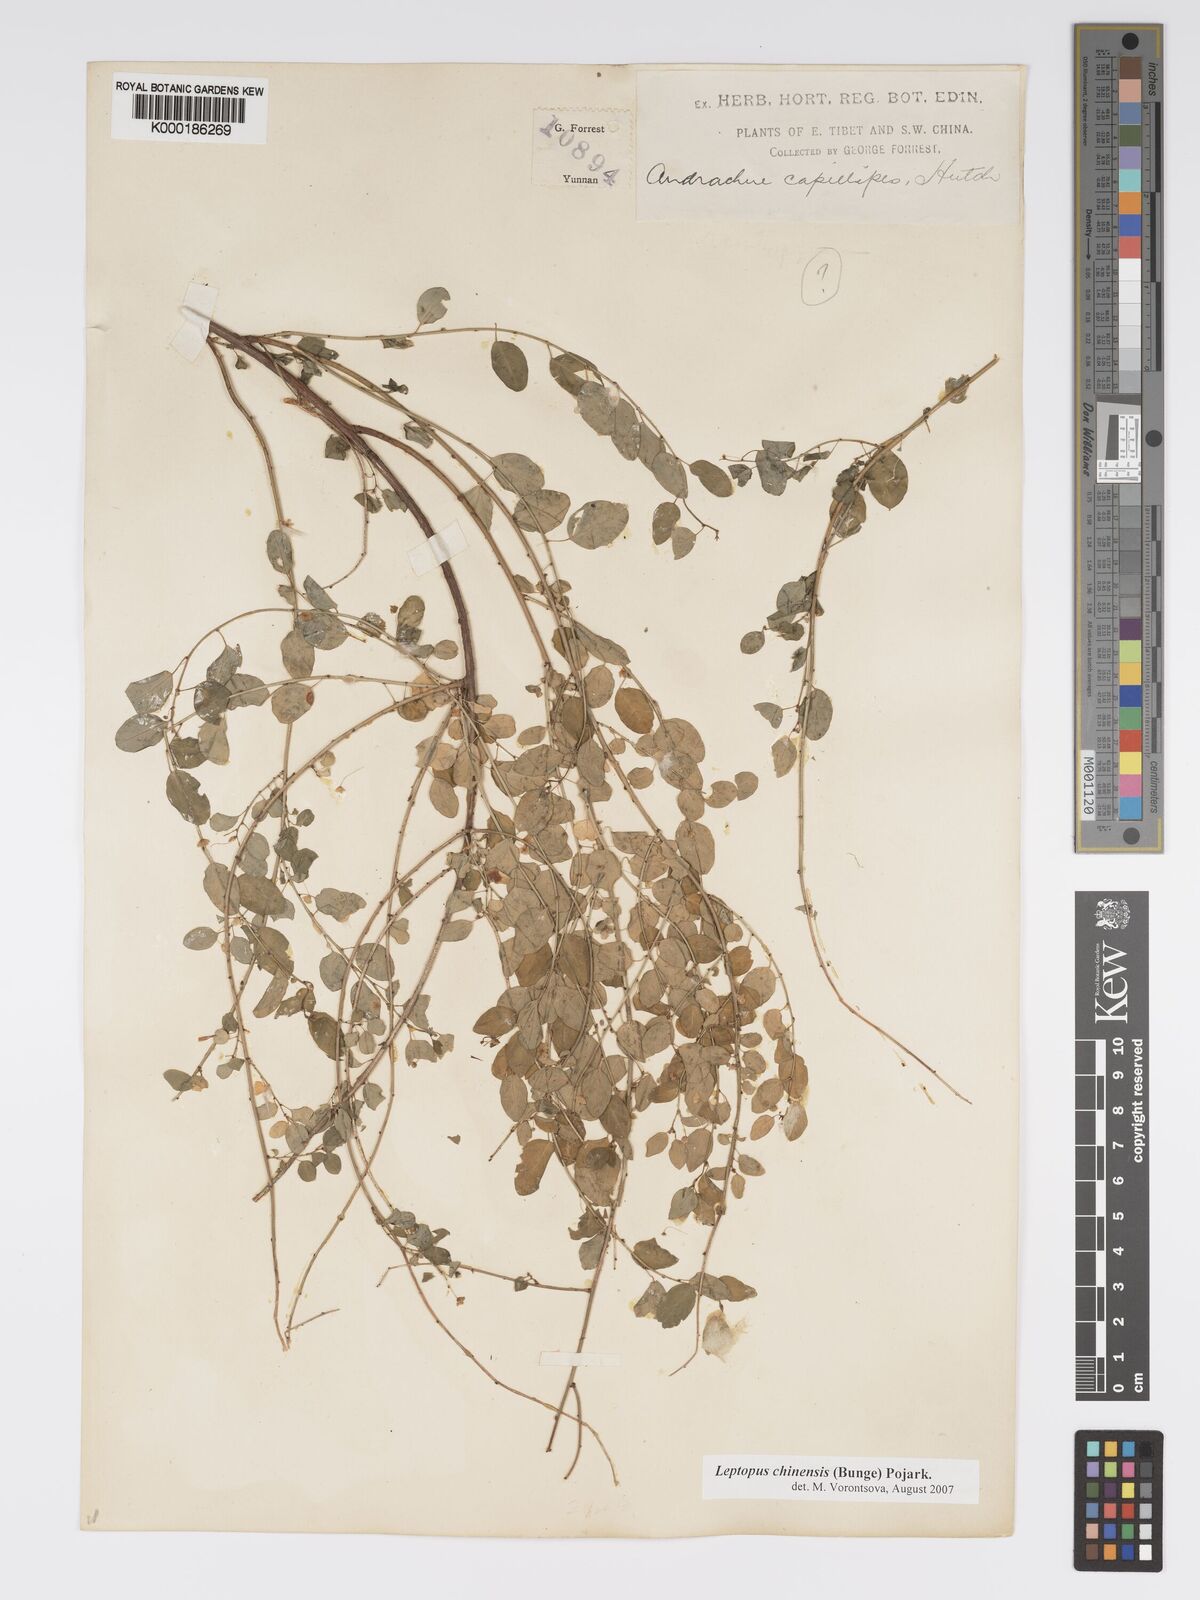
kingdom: Plantae
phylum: Tracheophyta
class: Magnoliopsida
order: Malpighiales
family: Phyllanthaceae
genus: Leptopus
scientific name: Leptopus chinensis
